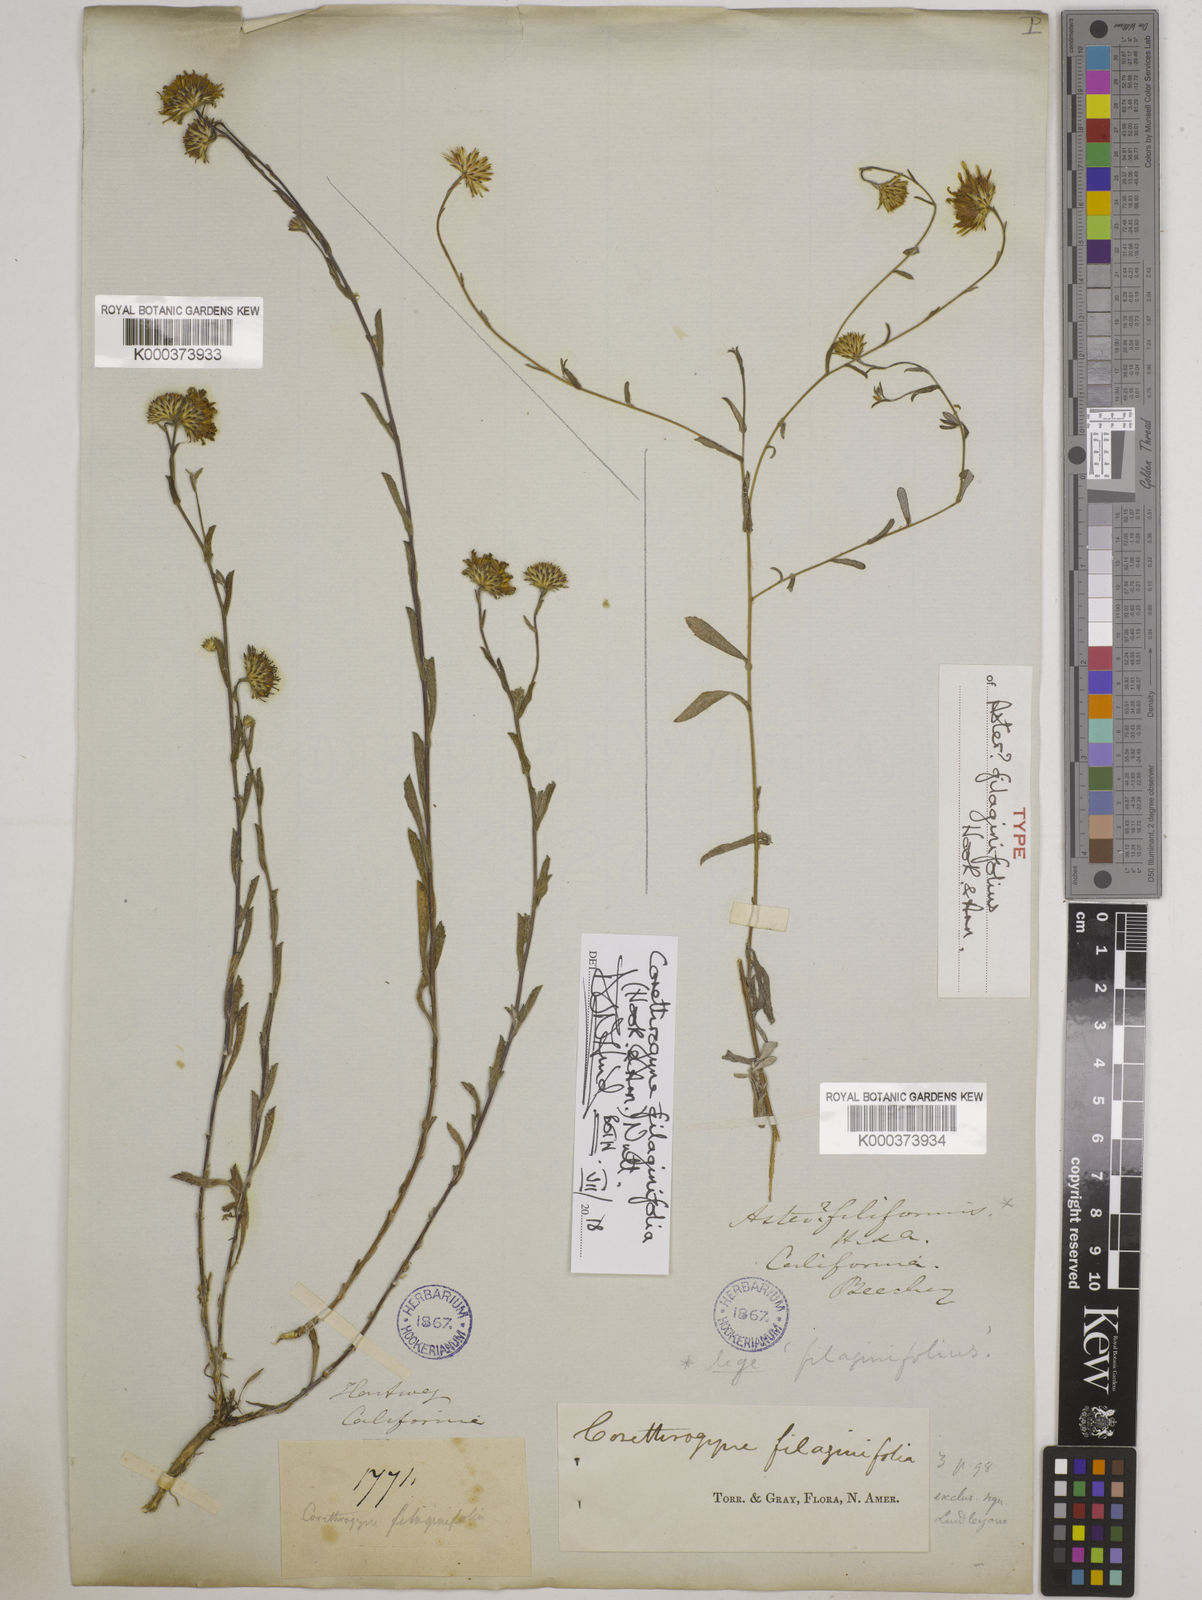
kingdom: Plantae
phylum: Tracheophyta
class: Magnoliopsida
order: Asterales
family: Asteraceae
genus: Corethrogyne
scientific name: Corethrogyne filaginifolia
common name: Sand-aster
